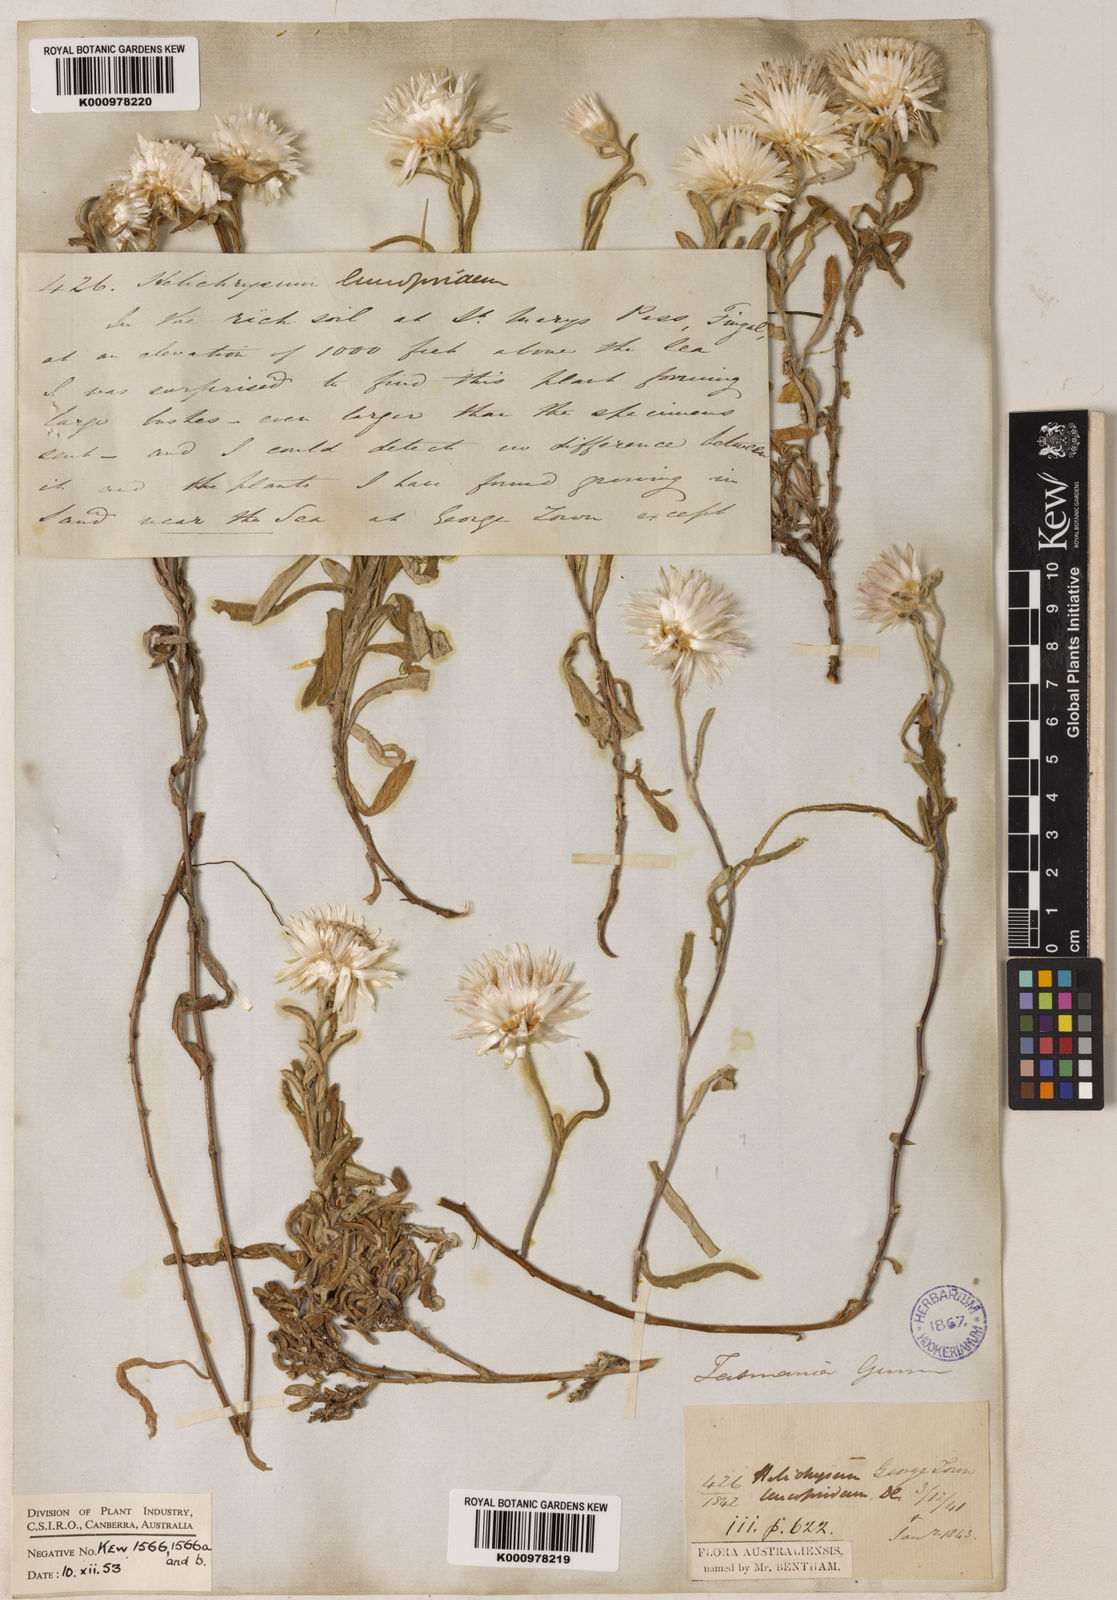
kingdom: Plantae
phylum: Tracheophyta
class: Magnoliopsida
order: Asterales
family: Asteraceae
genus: Helichrysum
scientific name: Helichrysum leucopsideum
